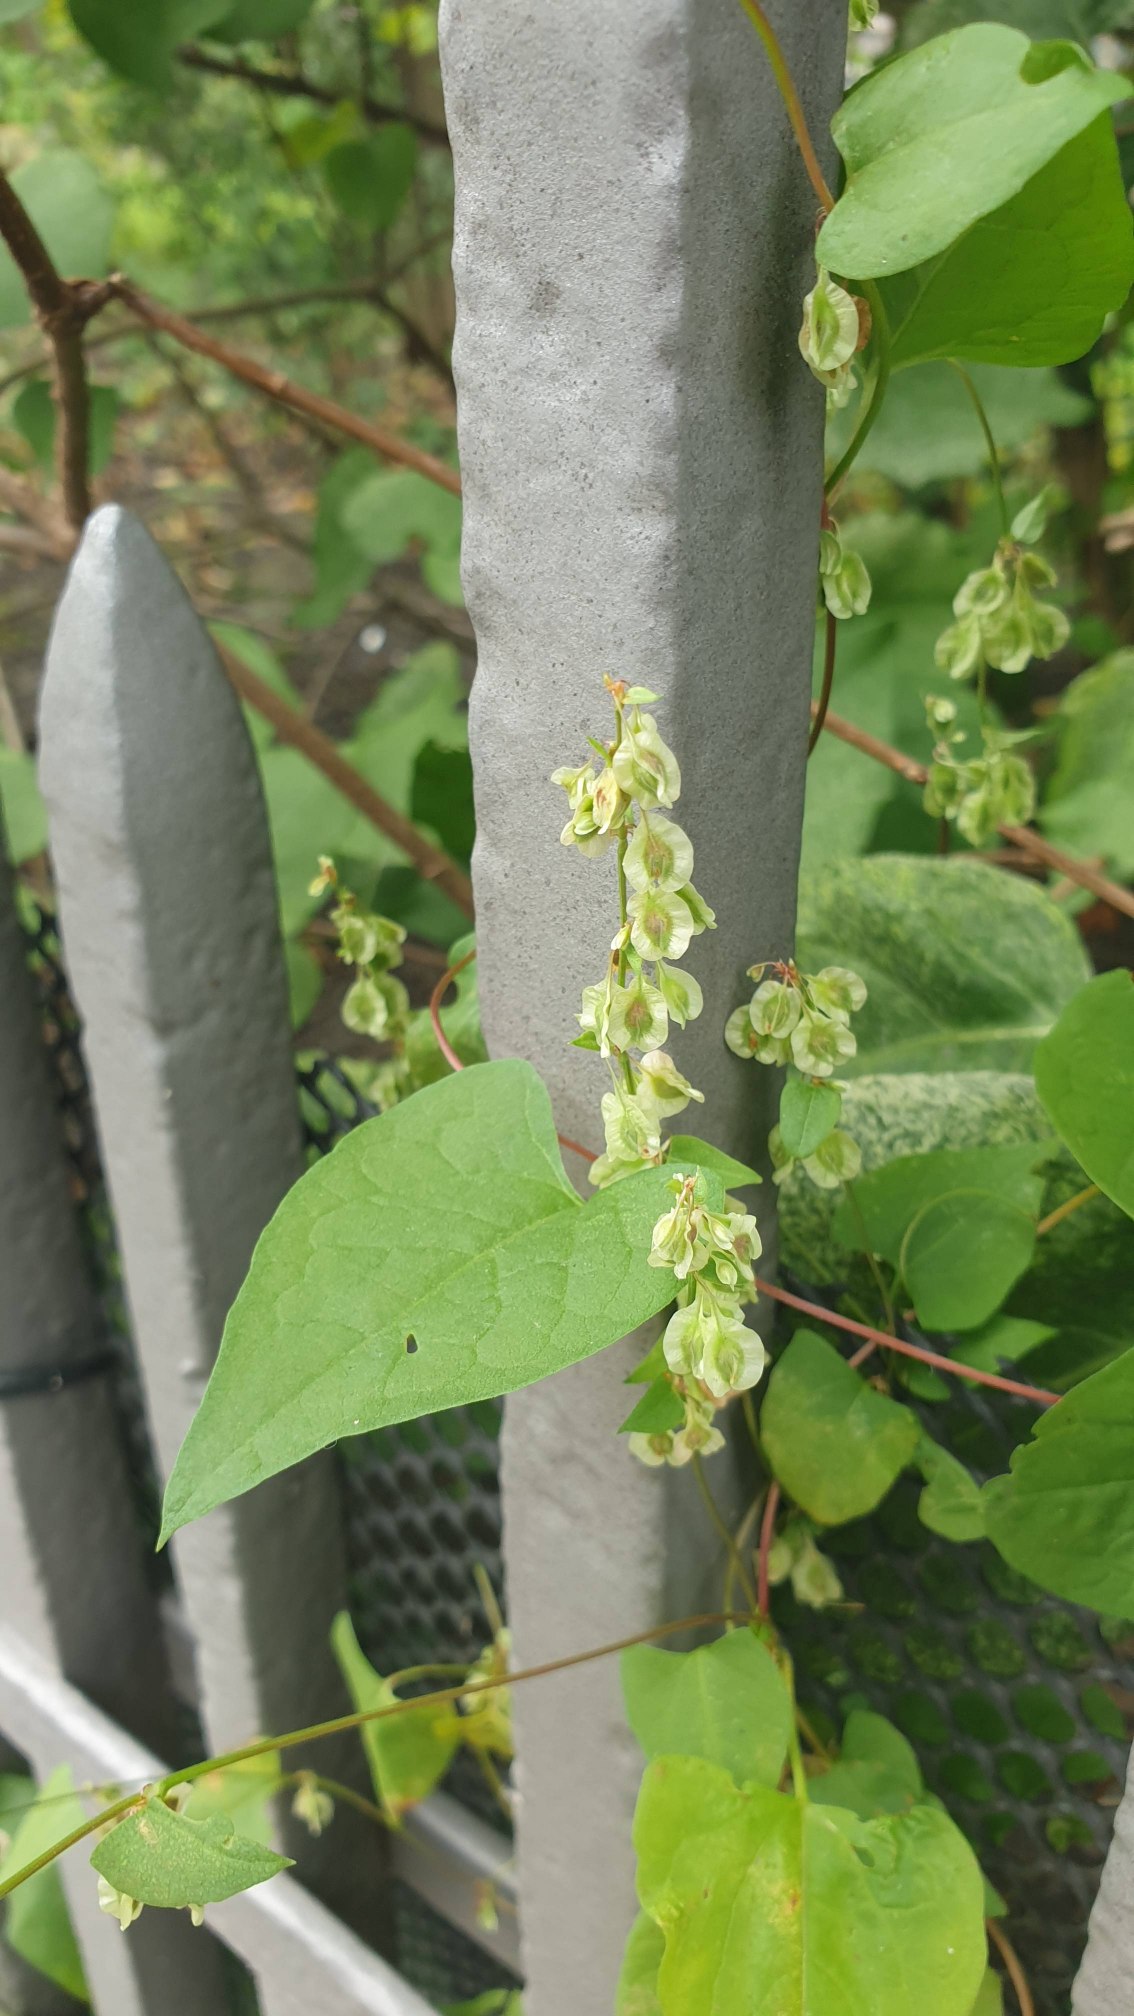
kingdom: Plantae
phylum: Tracheophyta
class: Magnoliopsida
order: Caryophyllales
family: Polygonaceae
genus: Fallopia
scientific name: Fallopia dumetorum
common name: Vinge-pileurt
